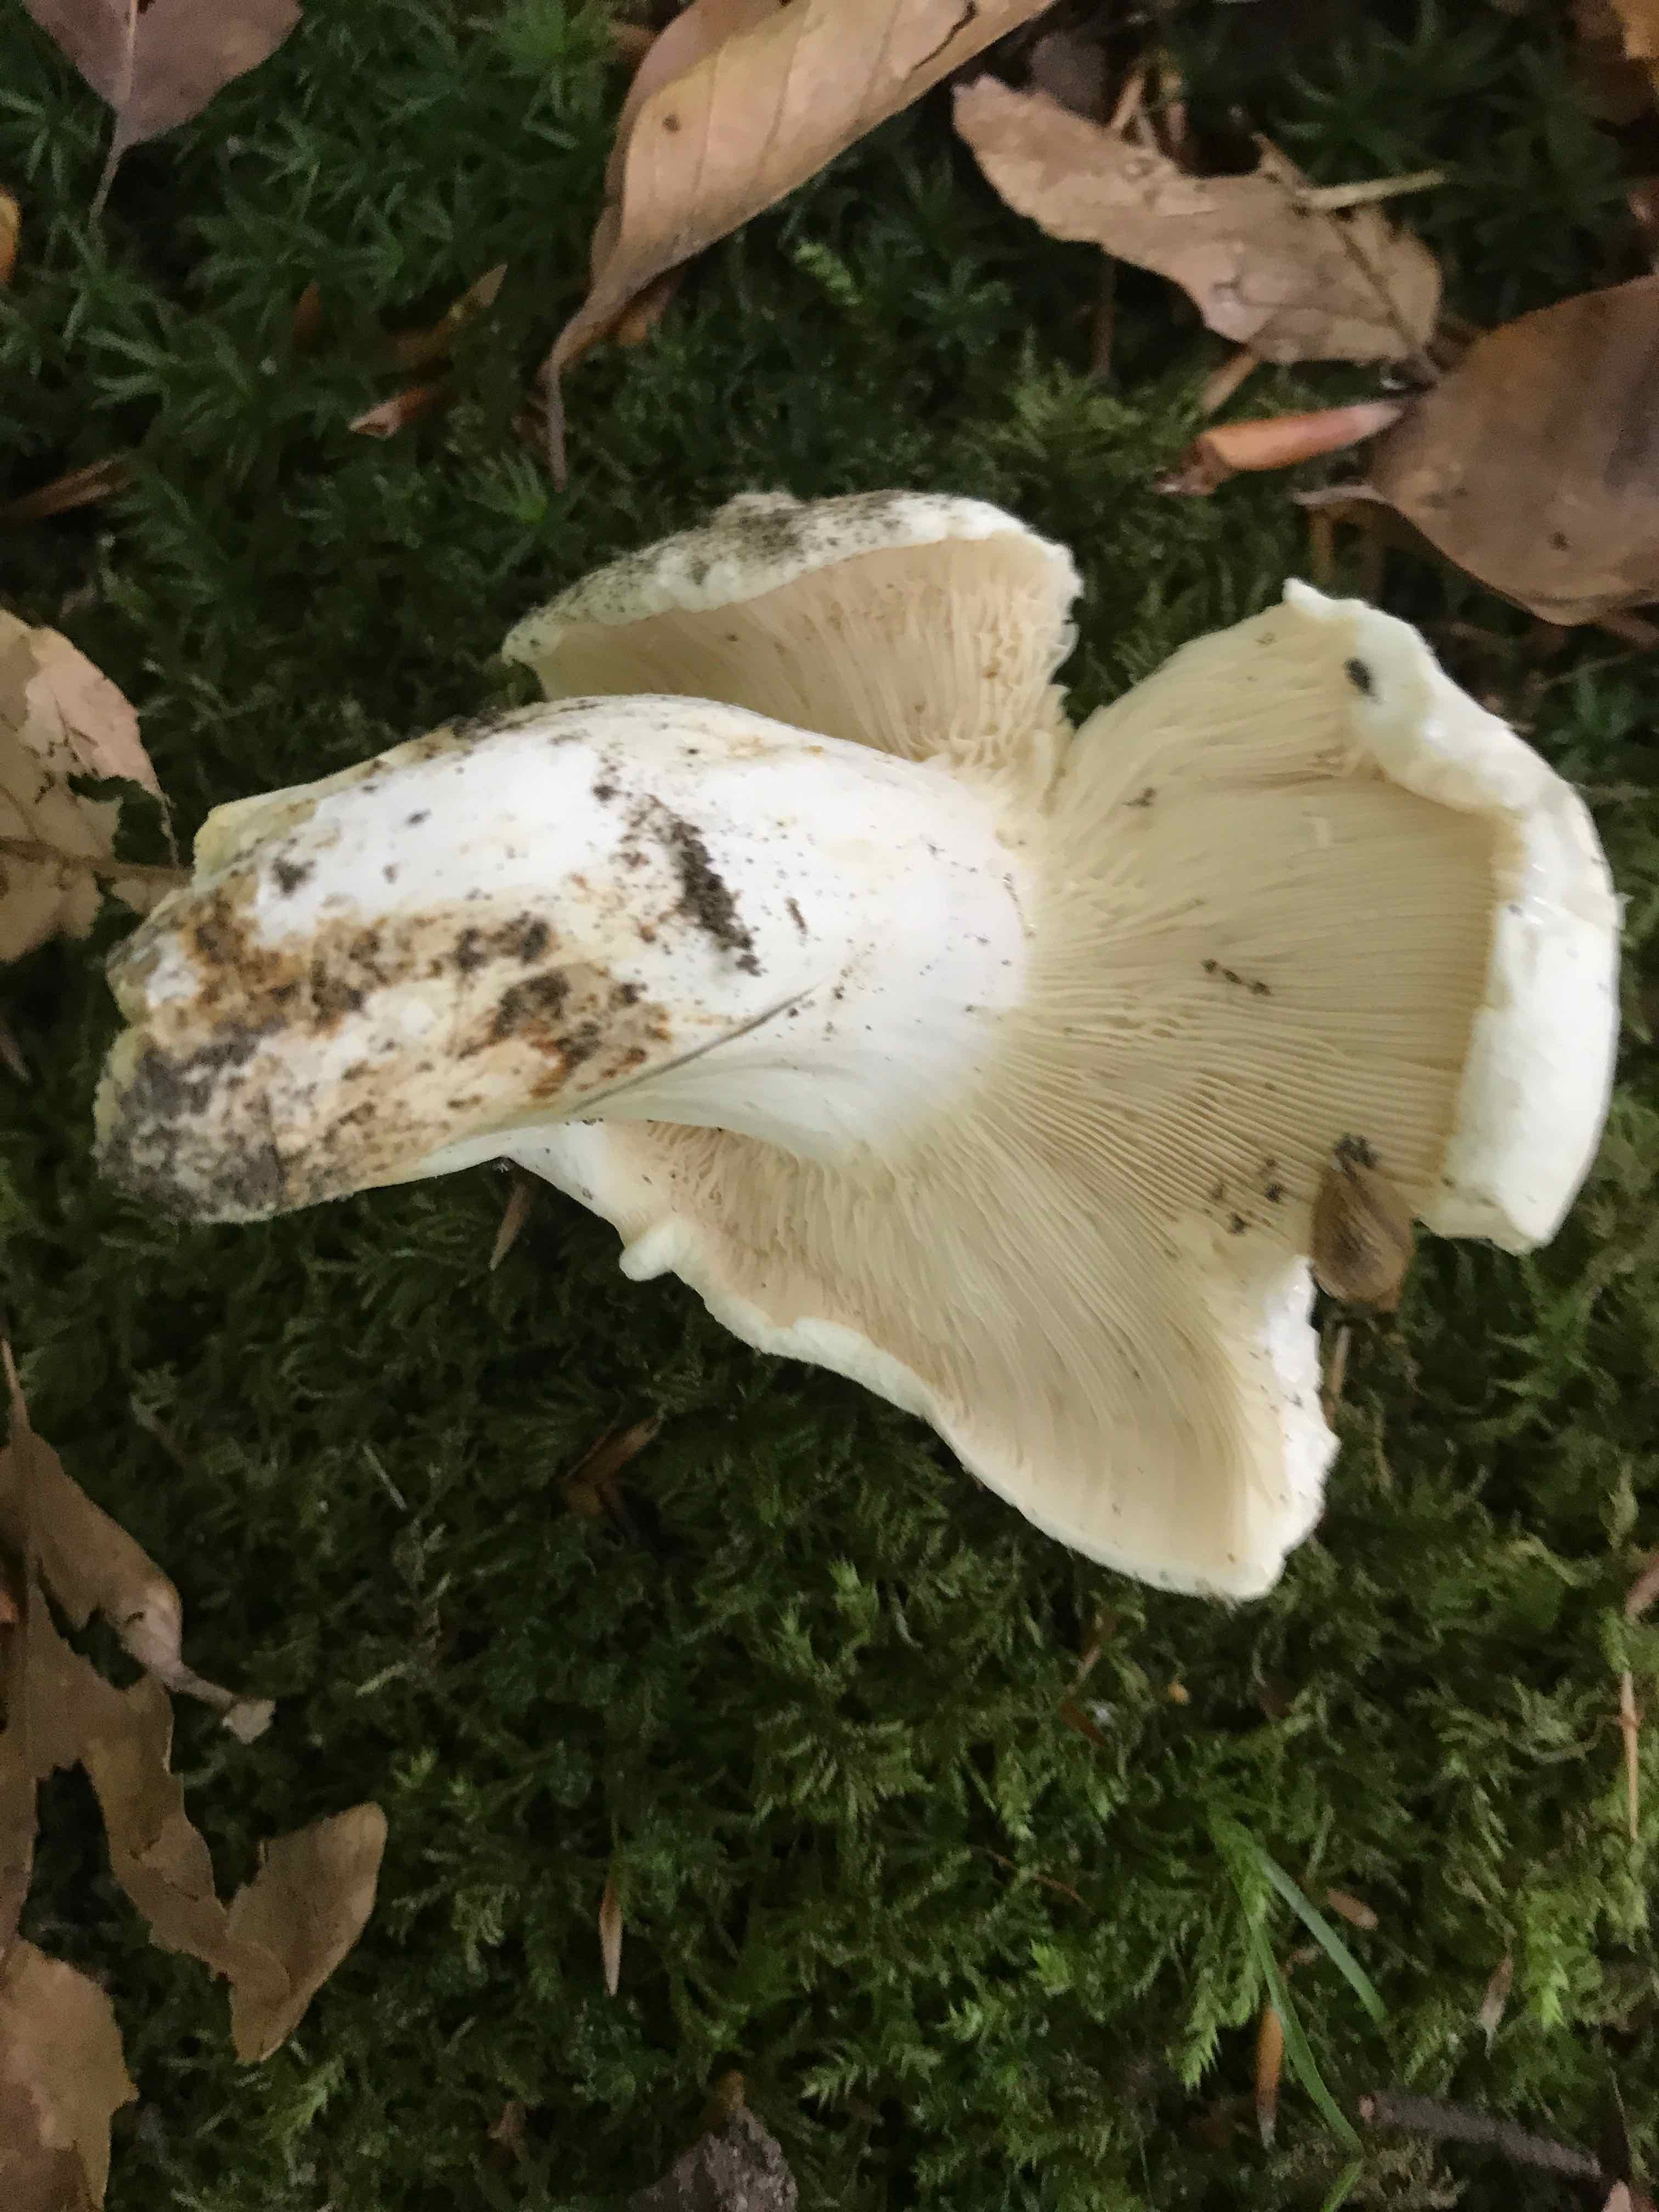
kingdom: Fungi
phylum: Basidiomycota
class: Agaricomycetes
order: Russulales
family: Russulaceae
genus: Lactifluus
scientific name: Lactifluus piperatus
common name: peber-mælkehat
